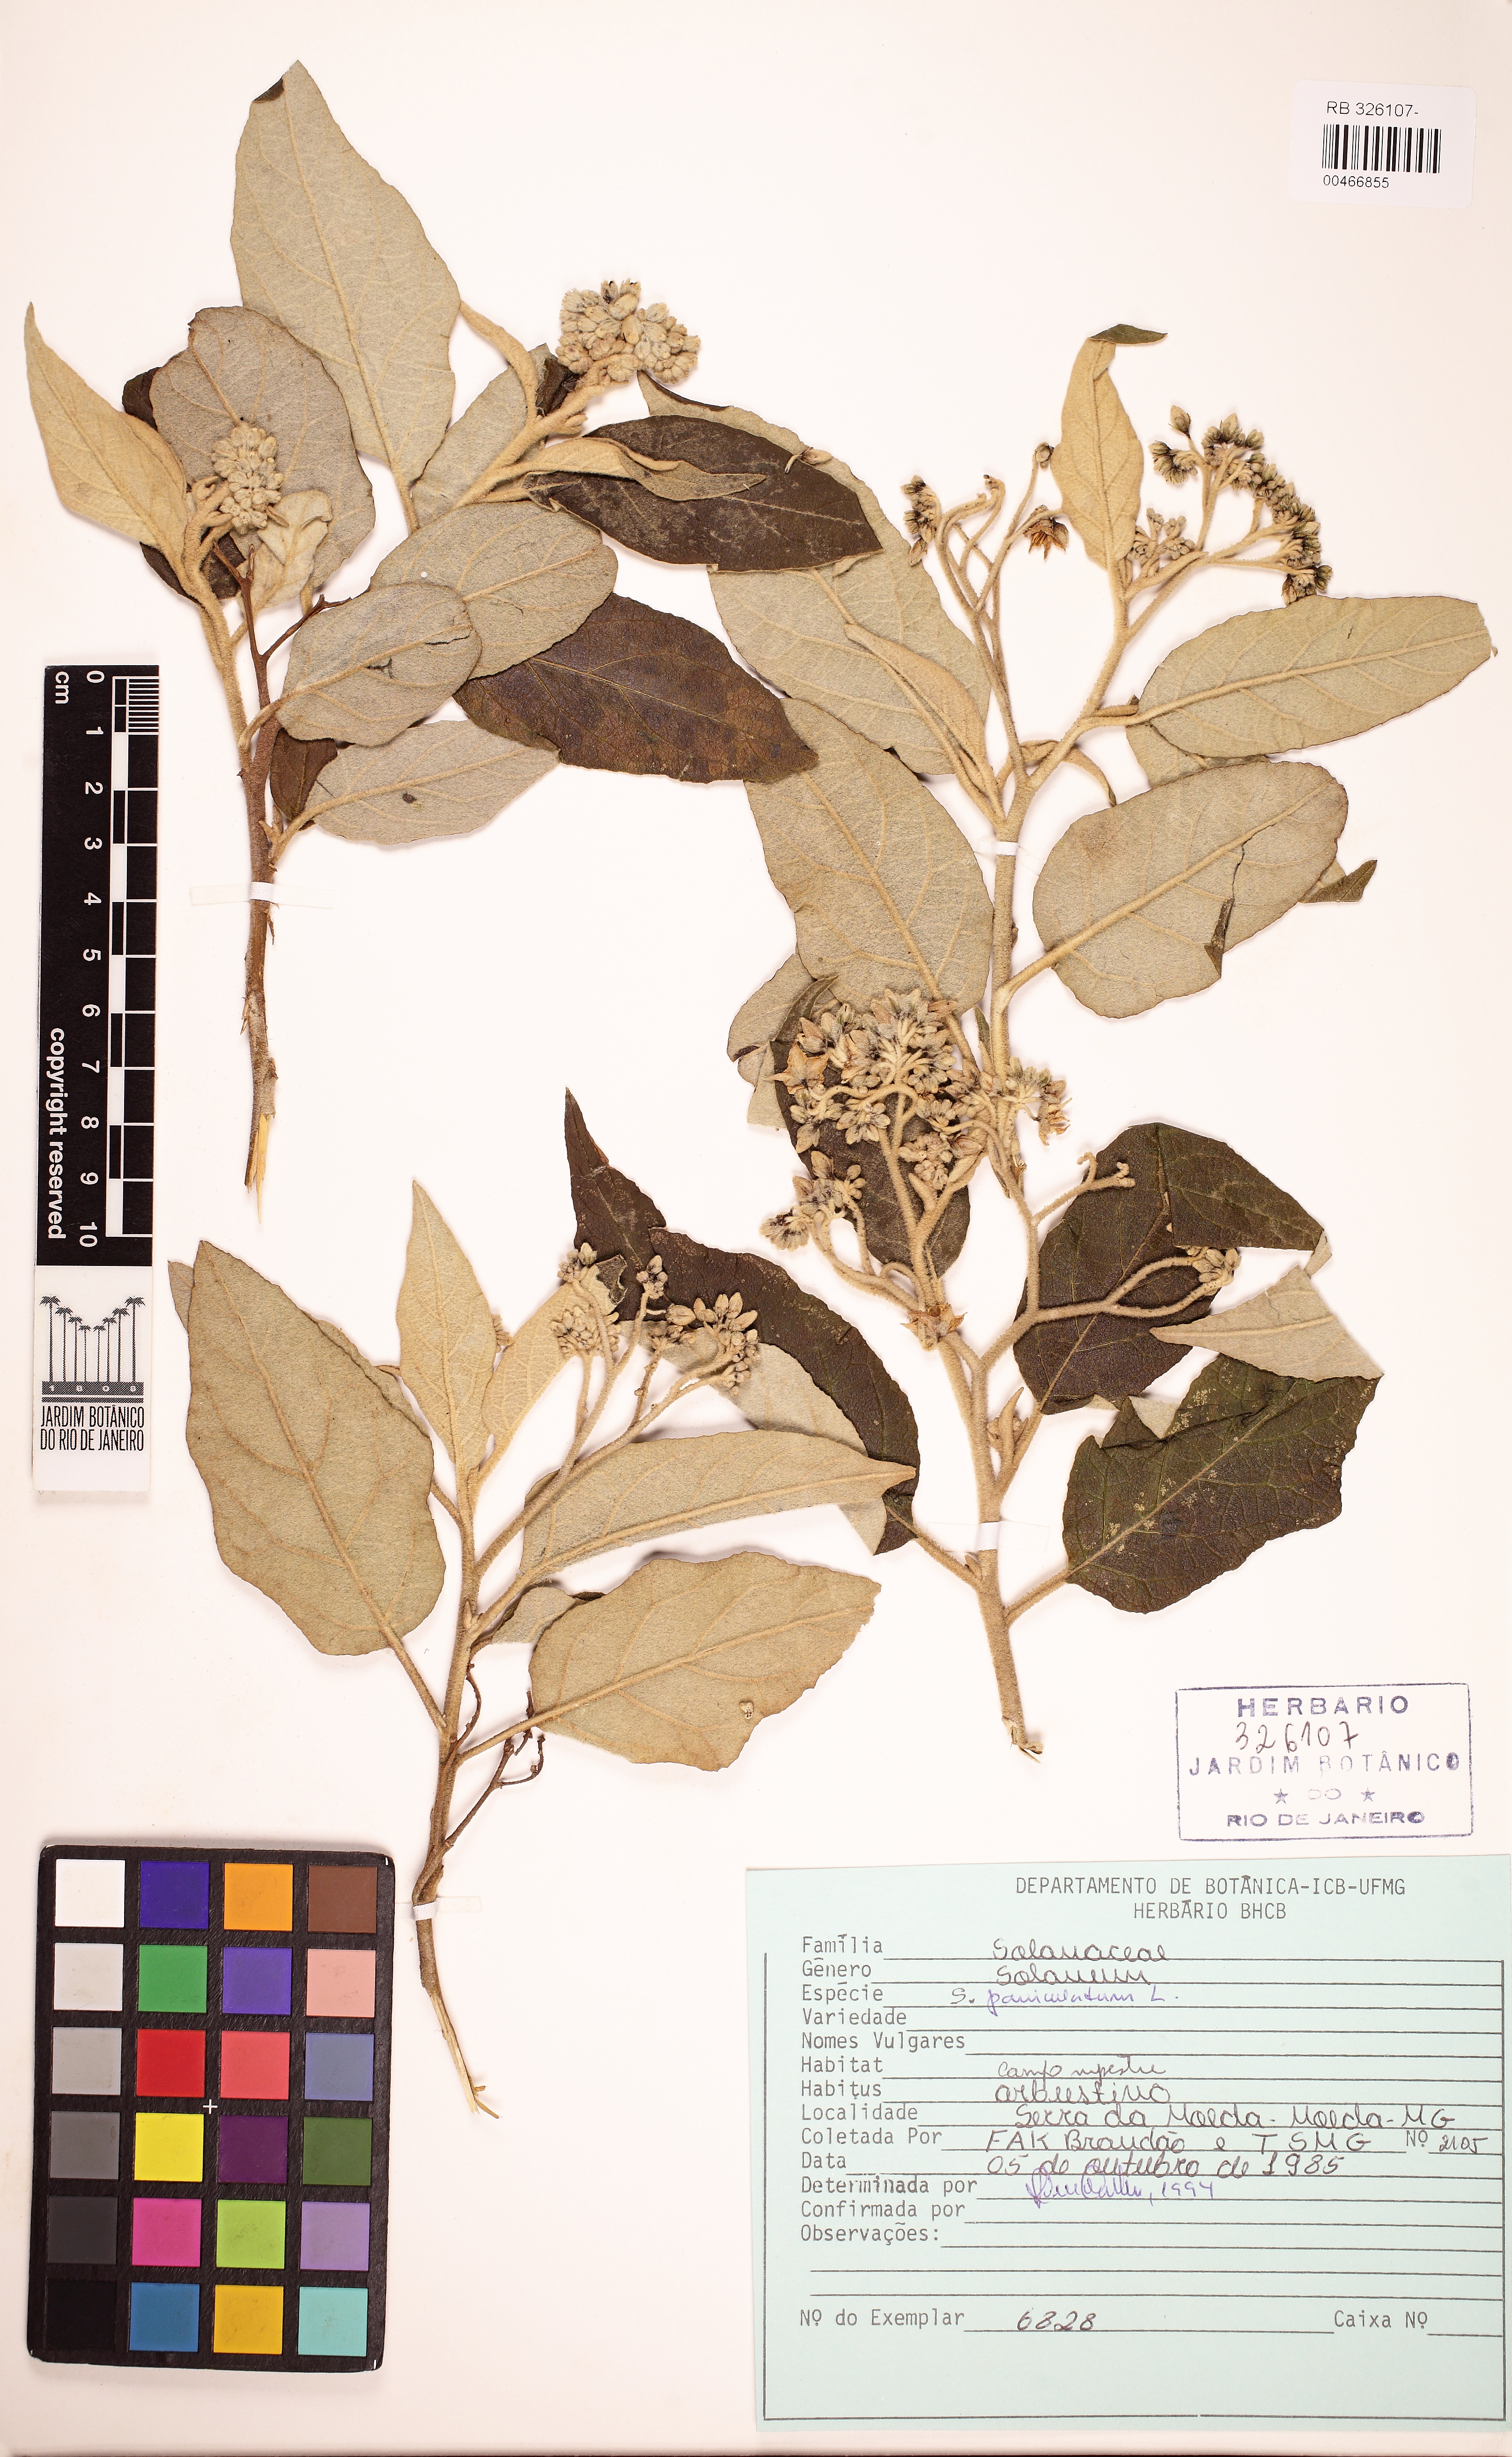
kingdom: Plantae
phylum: Tracheophyta
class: Magnoliopsida
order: Solanales
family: Solanaceae
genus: Solanum
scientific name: Solanum paniculatum
